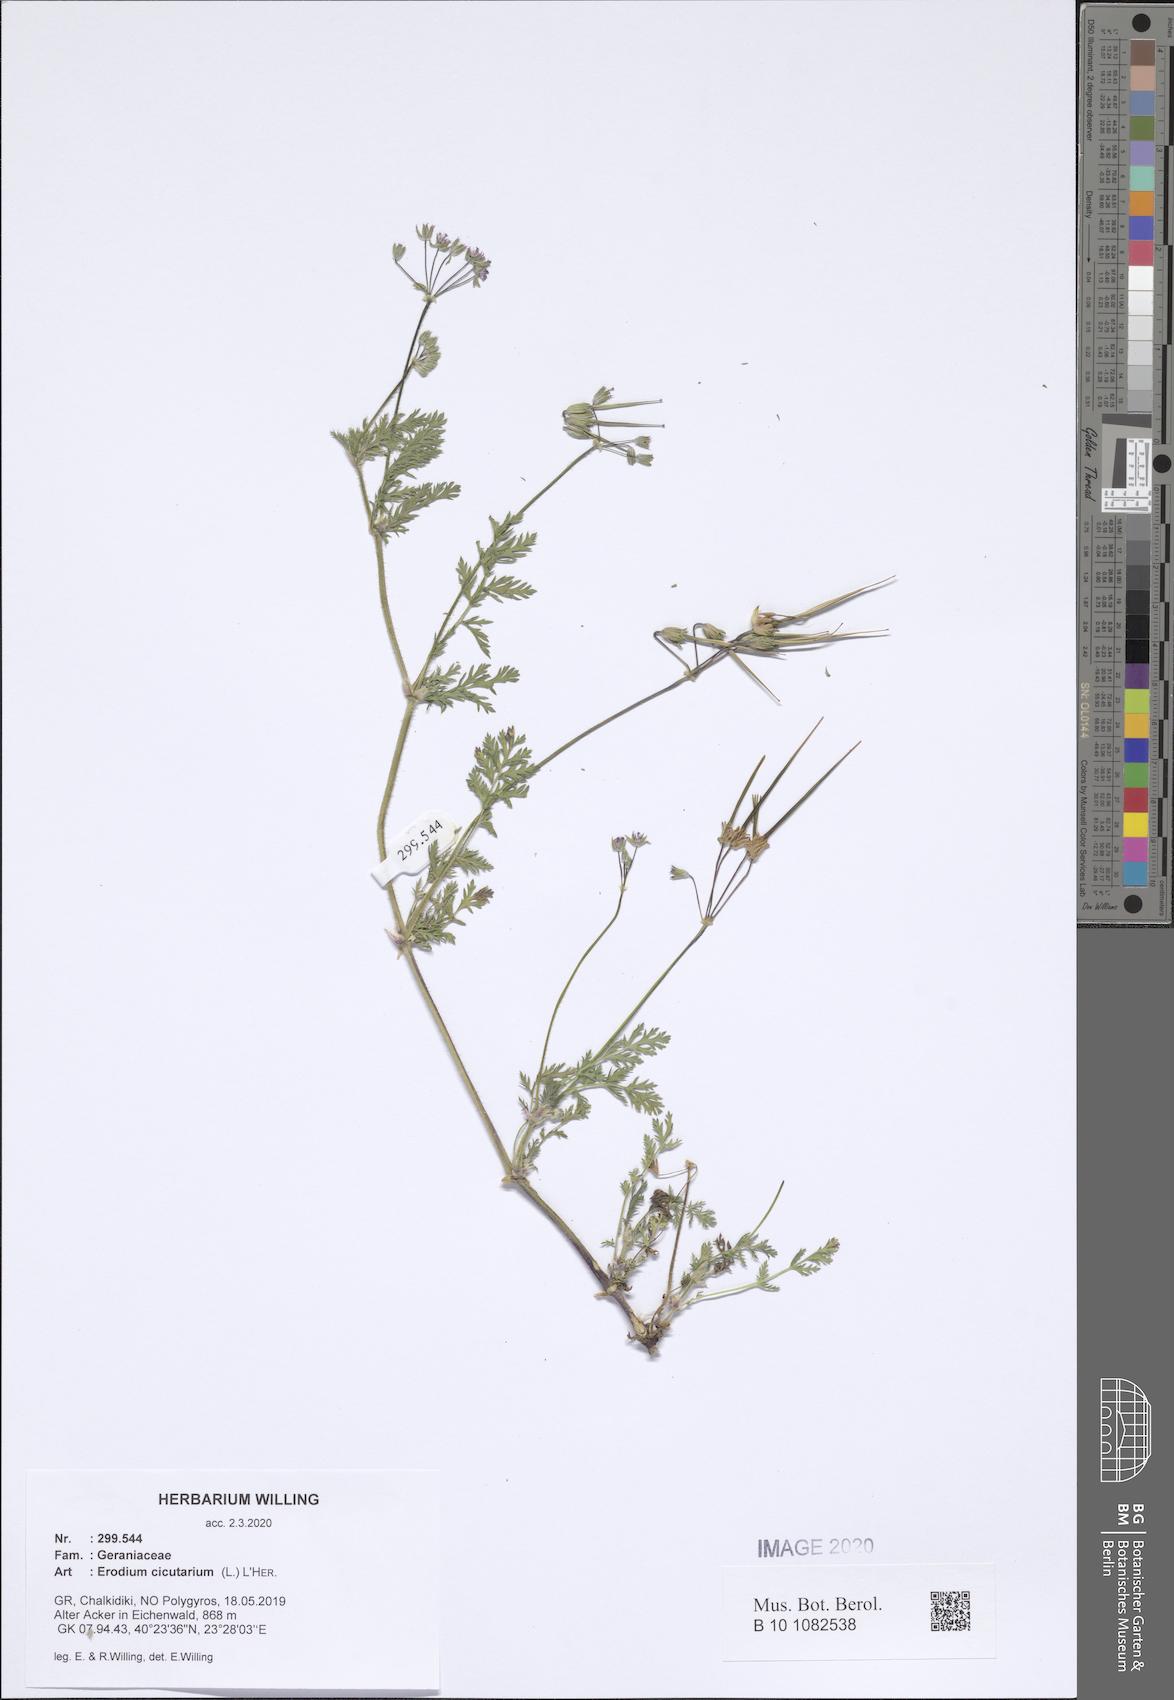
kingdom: Plantae
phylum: Tracheophyta
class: Magnoliopsida
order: Geraniales
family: Geraniaceae
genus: Erodium
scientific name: Erodium cicutarium
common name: Common stork's-bill
